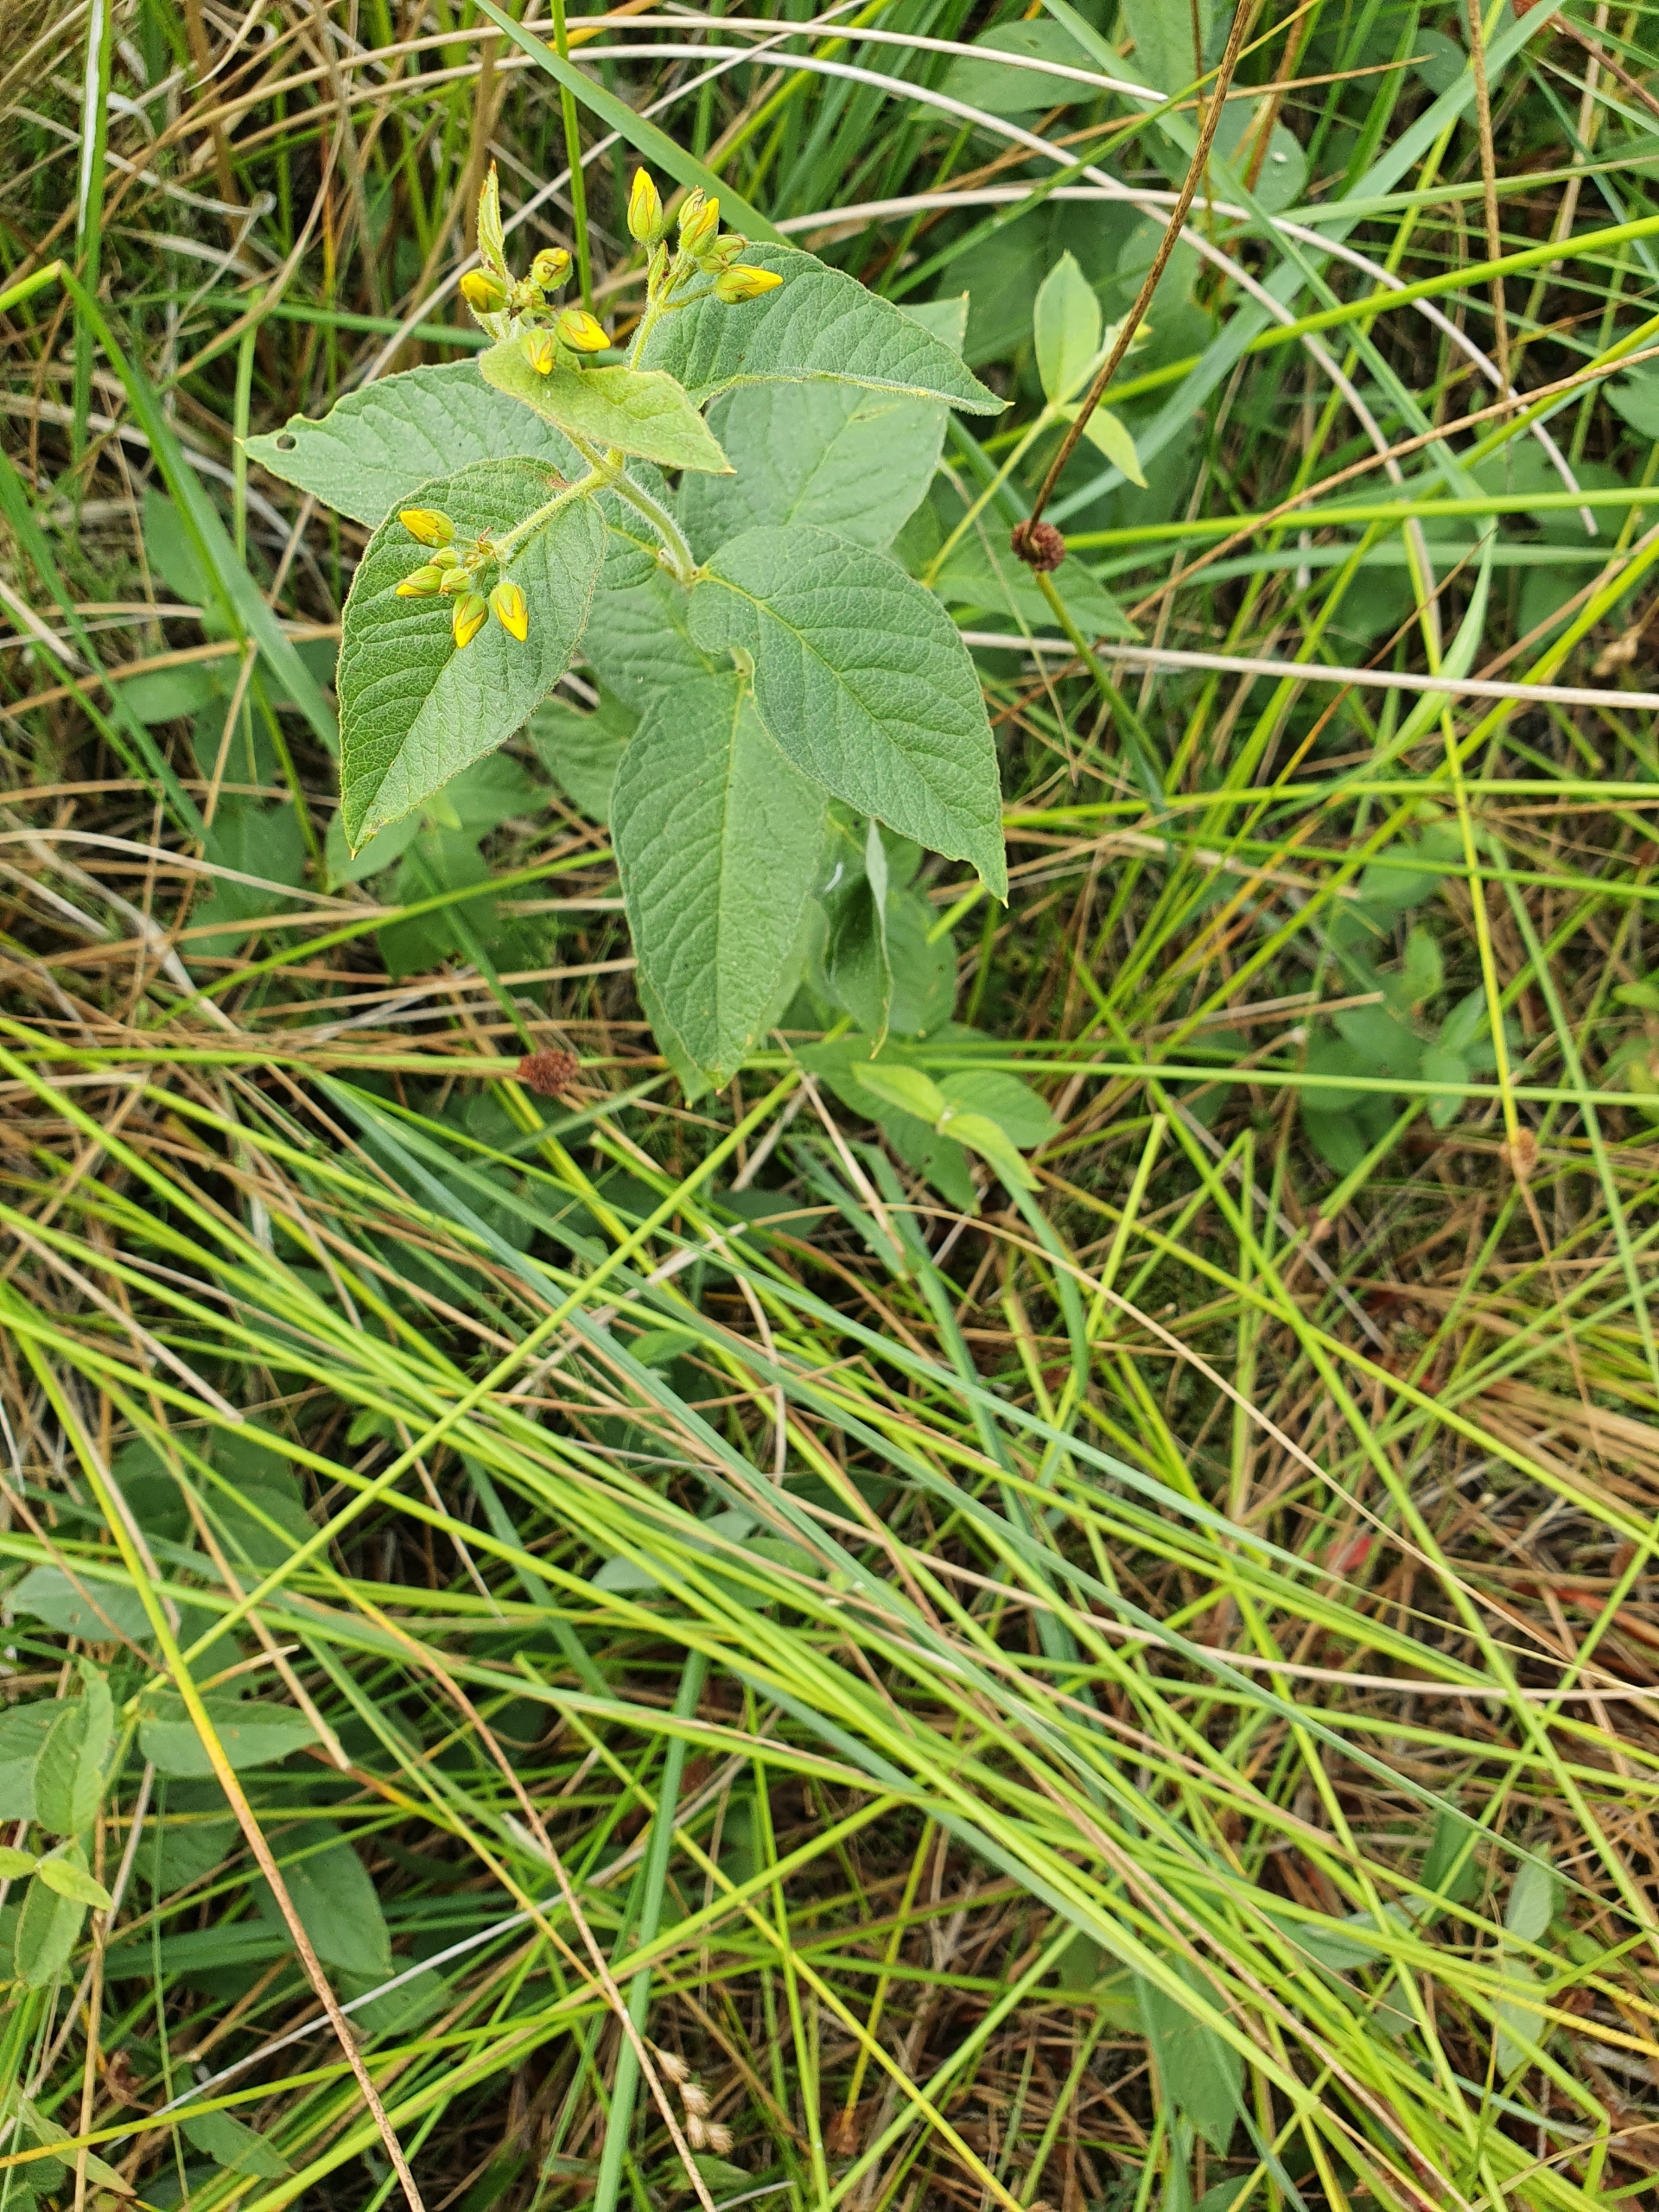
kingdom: Plantae
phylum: Tracheophyta
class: Magnoliopsida
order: Ericales
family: Primulaceae
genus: Lysimachia
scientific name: Lysimachia vulgaris
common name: Almindelig fredløs
